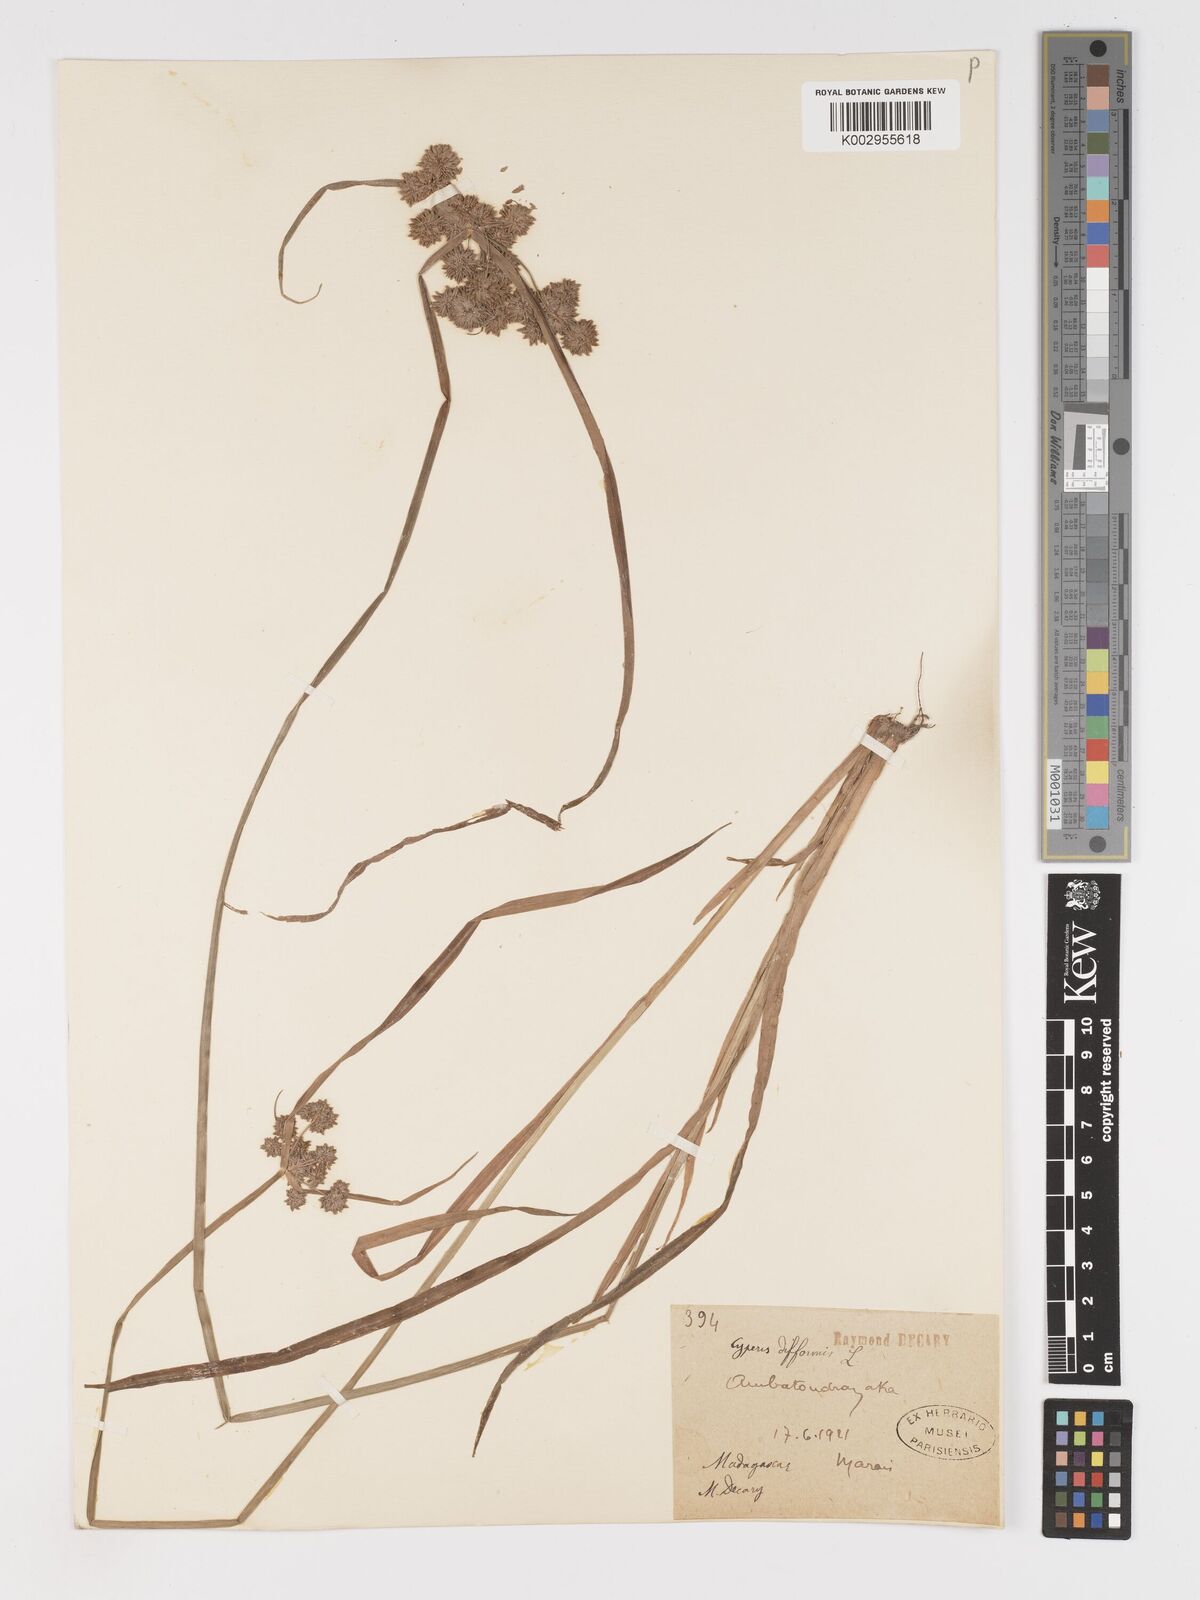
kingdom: Plantae
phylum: Tracheophyta
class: Liliopsida
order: Poales
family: Cyperaceae
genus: Cyperus
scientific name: Cyperus difformis
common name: Variable flatsedge
